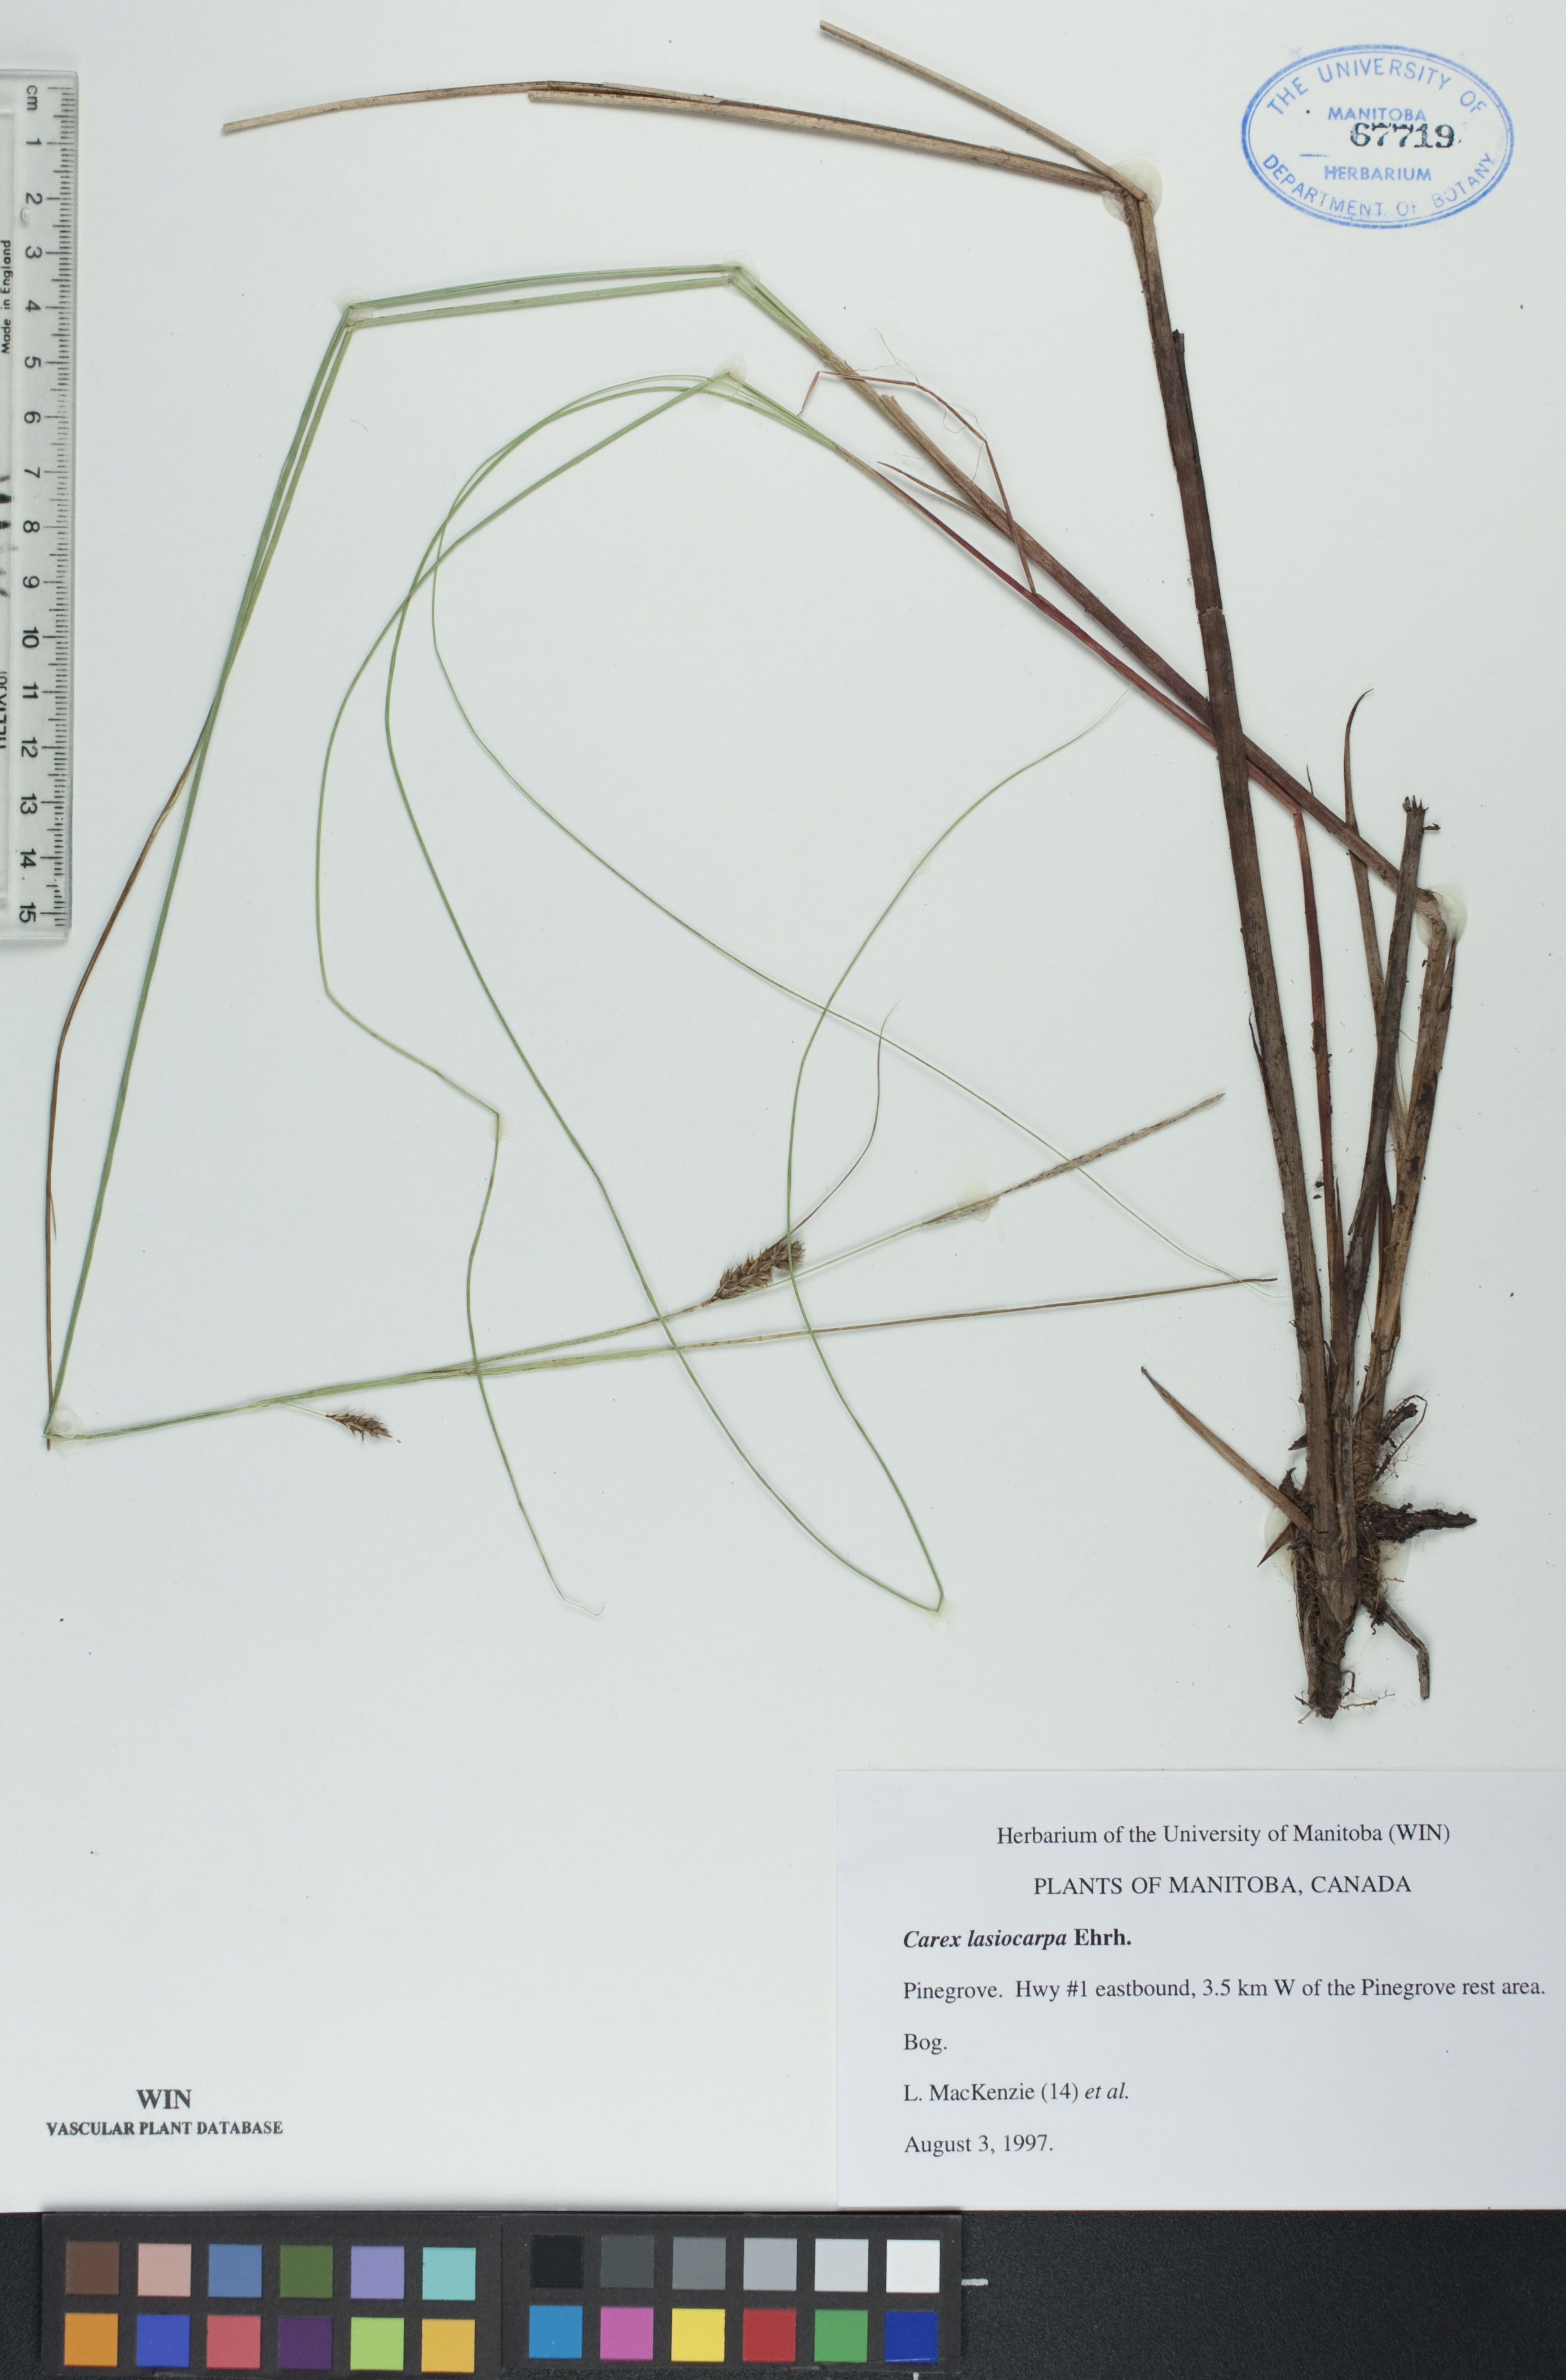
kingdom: Plantae
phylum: Tracheophyta
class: Liliopsida
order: Poales
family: Cyperaceae
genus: Carex
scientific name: Carex lasiocarpa
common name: Slender sedge
